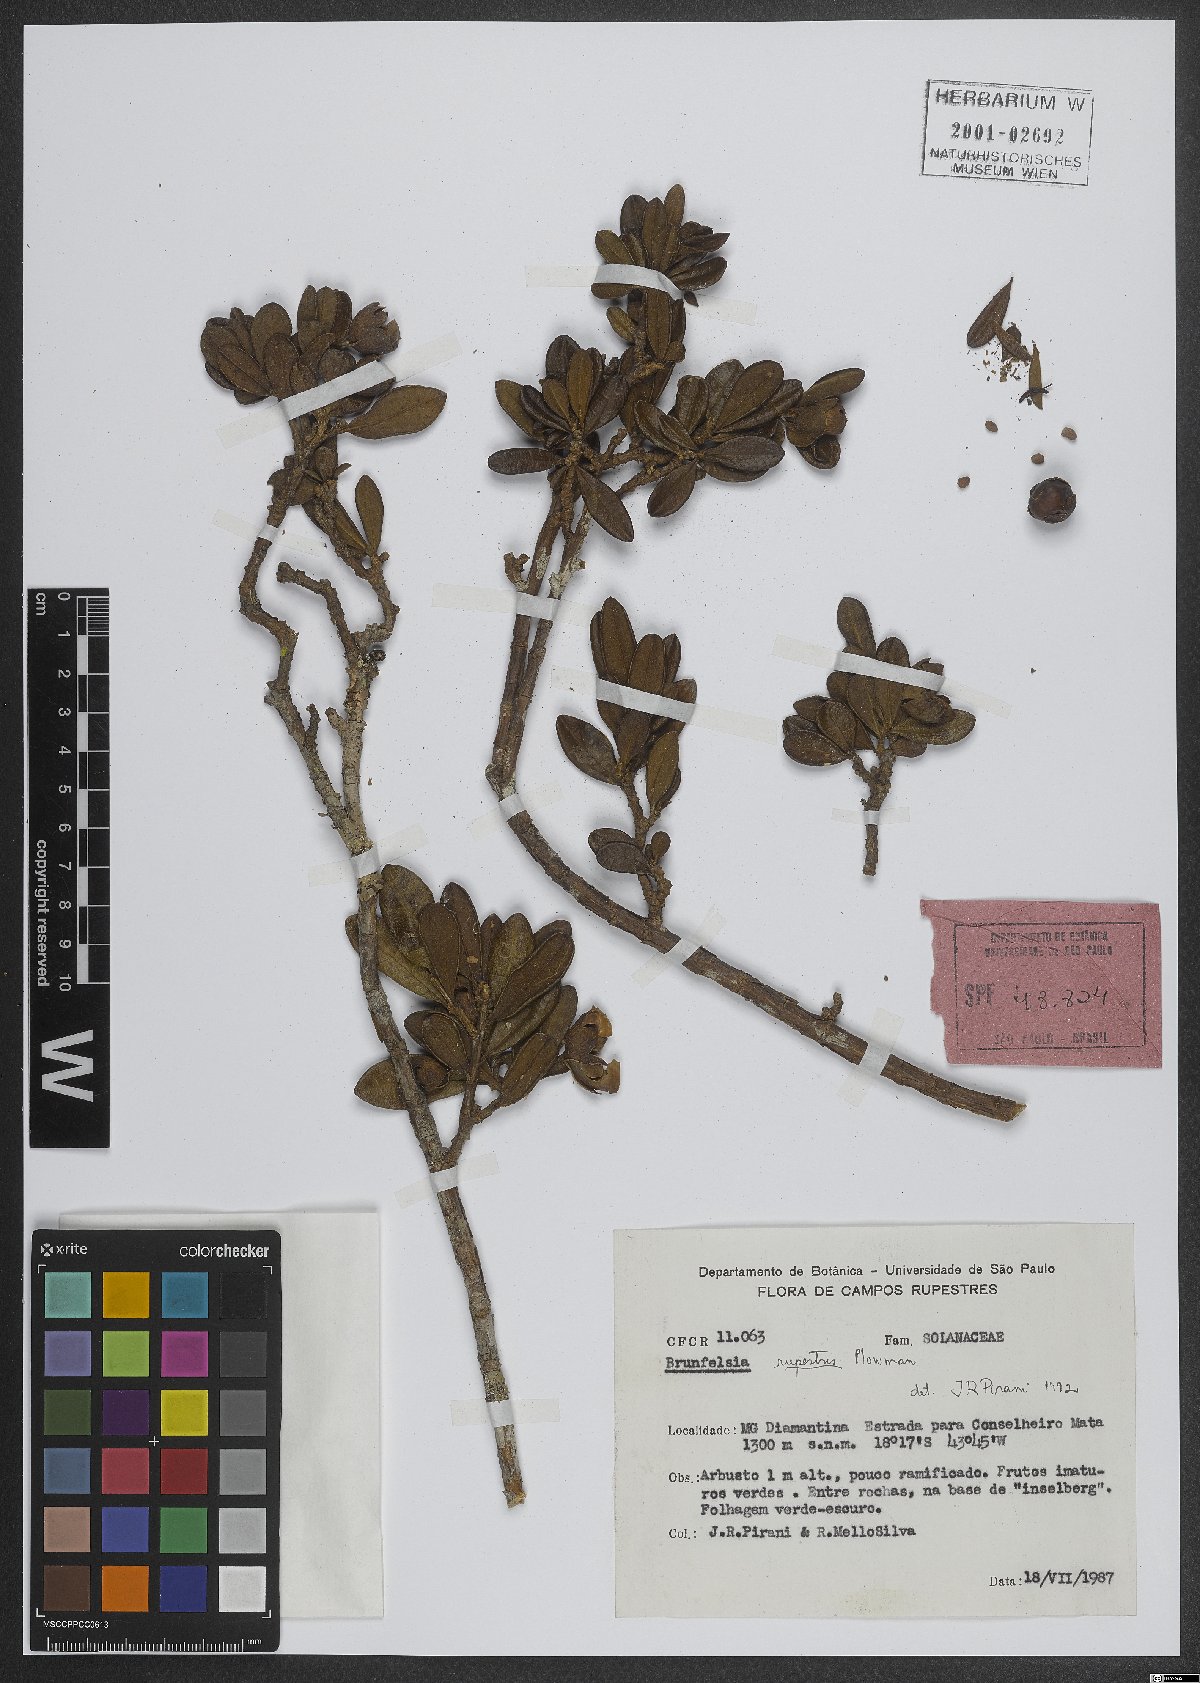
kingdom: Plantae
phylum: Tracheophyta
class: Magnoliopsida
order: Solanales
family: Solanaceae
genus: Brunfelsia
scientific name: Brunfelsia rupestris
